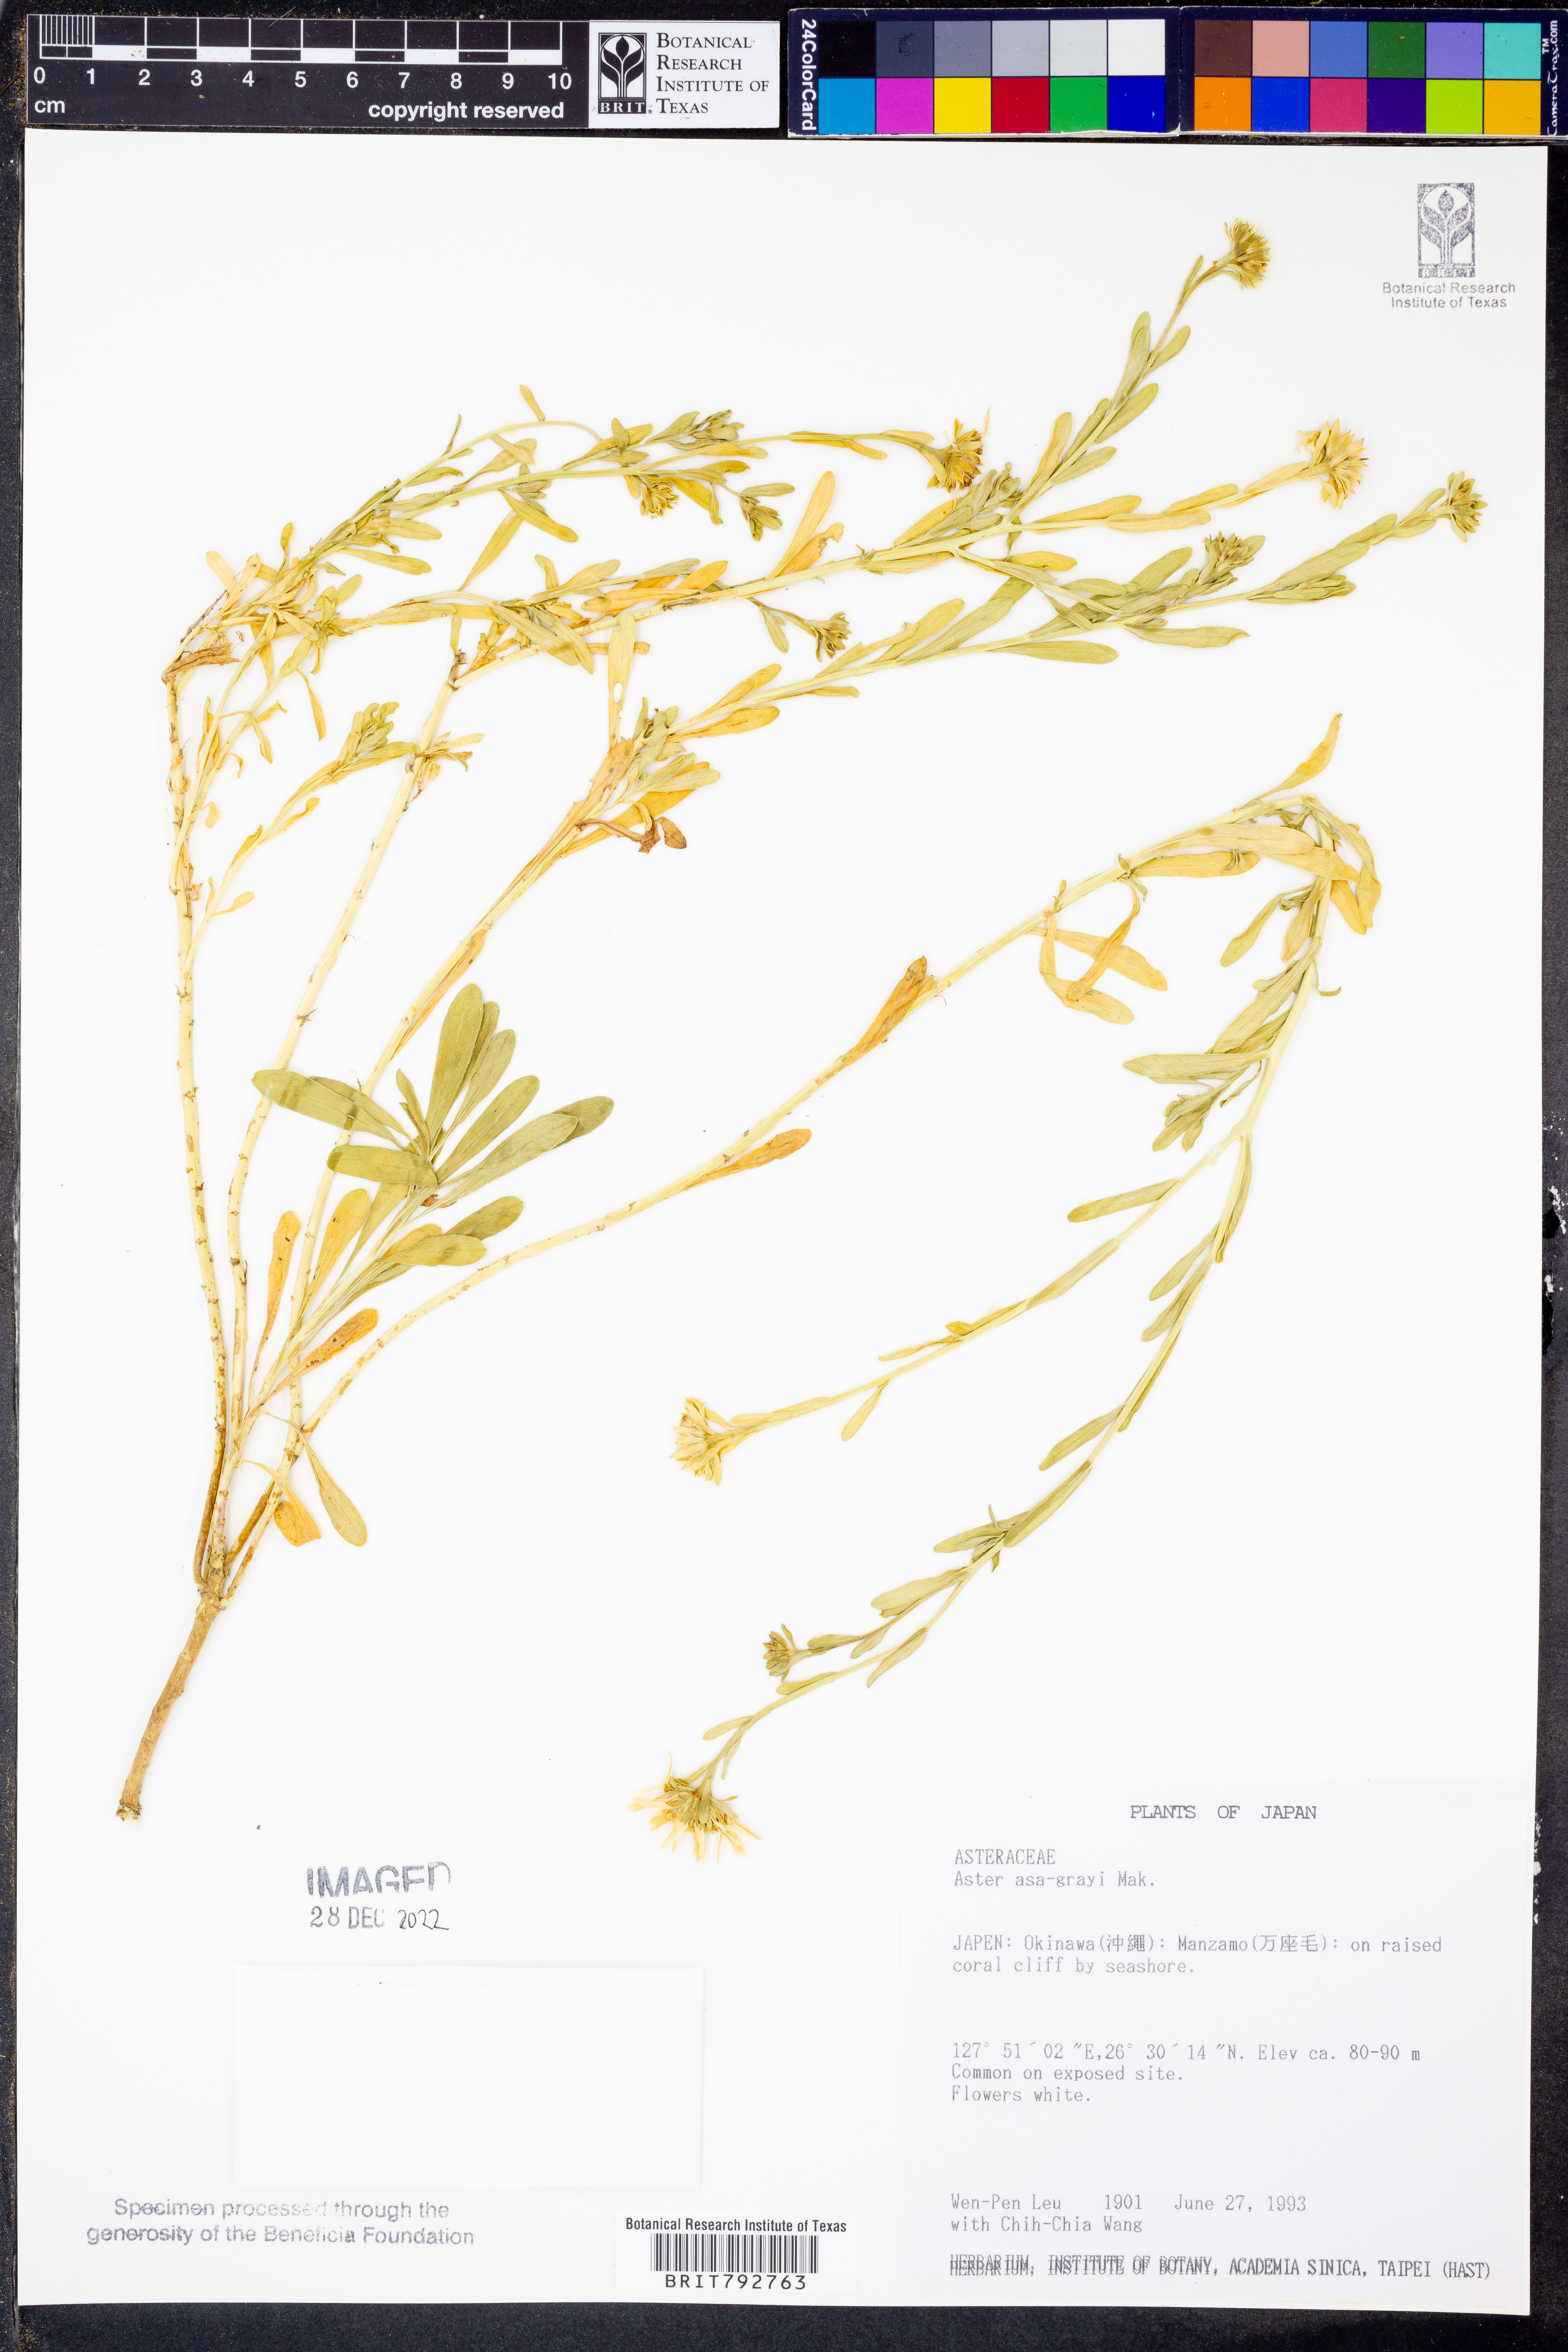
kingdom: Plantae
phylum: Tracheophyta
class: Magnoliopsida
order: Asterales
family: Asteraceae
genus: Heteropappus
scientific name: Heteropappus ciliosus
